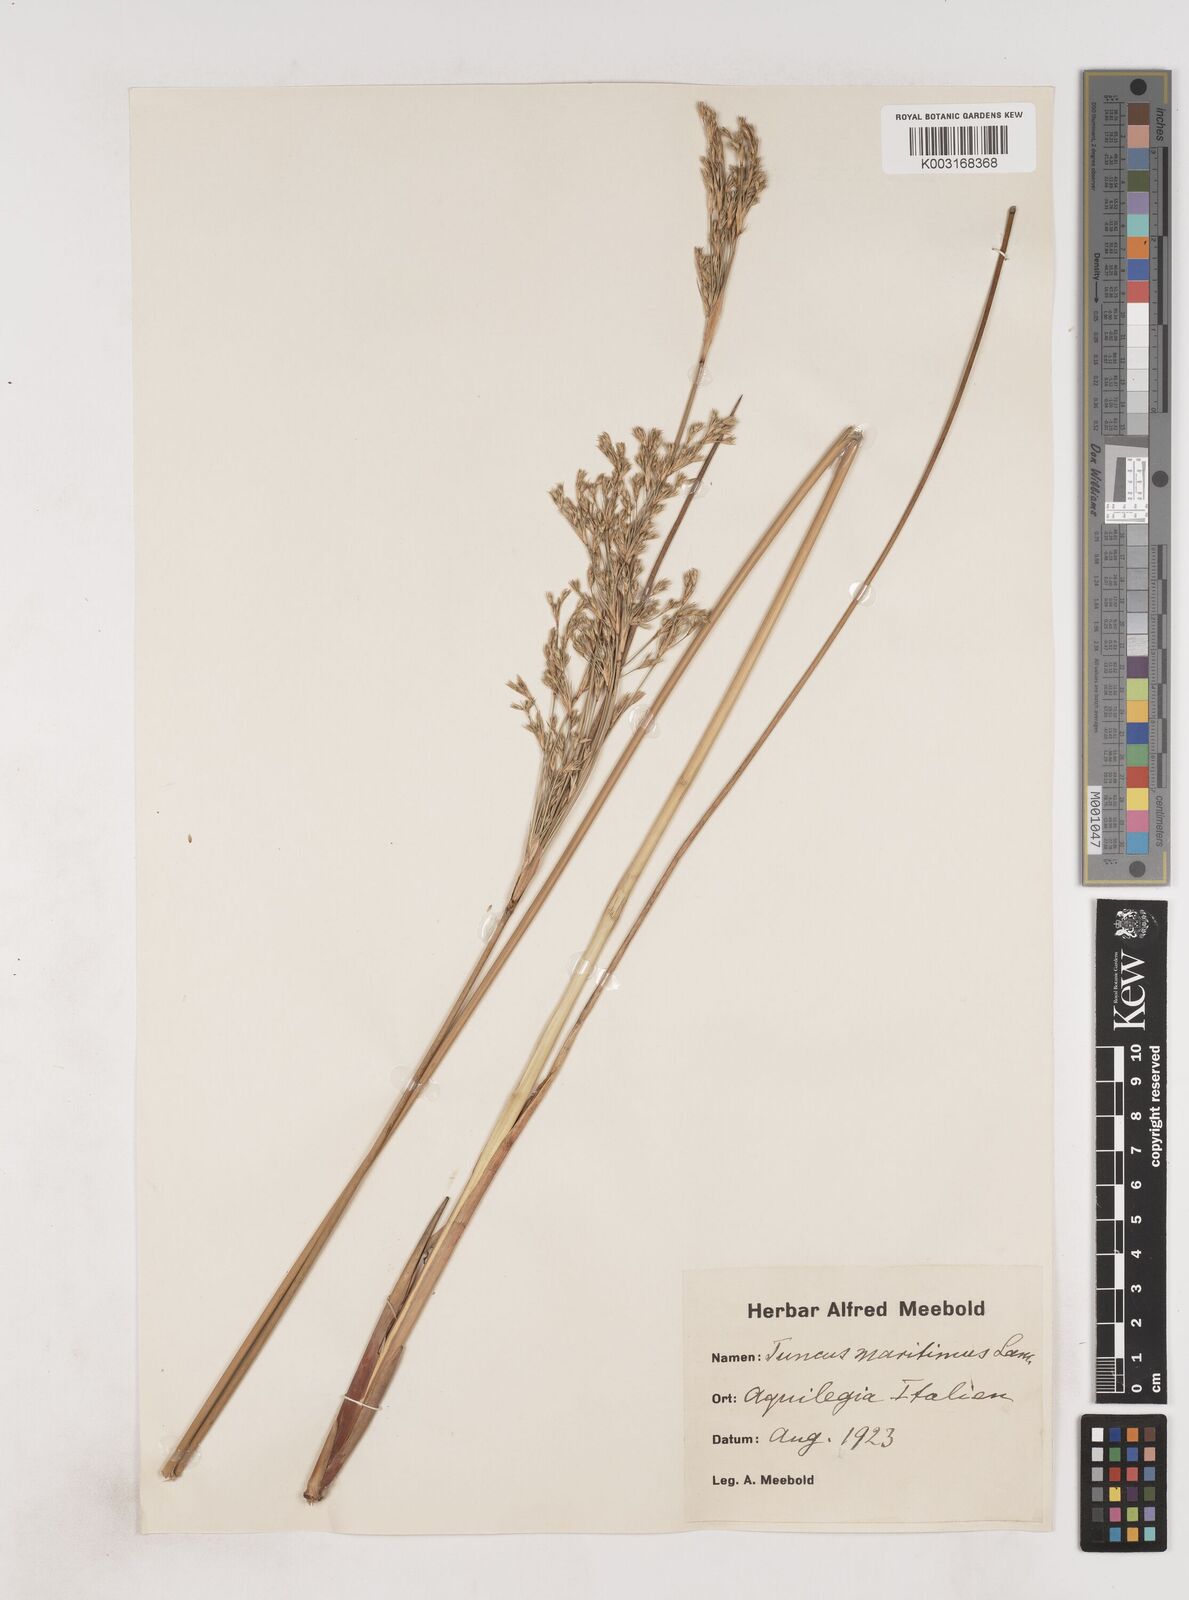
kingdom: Plantae
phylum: Tracheophyta
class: Liliopsida
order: Poales
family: Juncaceae
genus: Luzula
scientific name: Luzula sylvatica
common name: Great wood-rush
